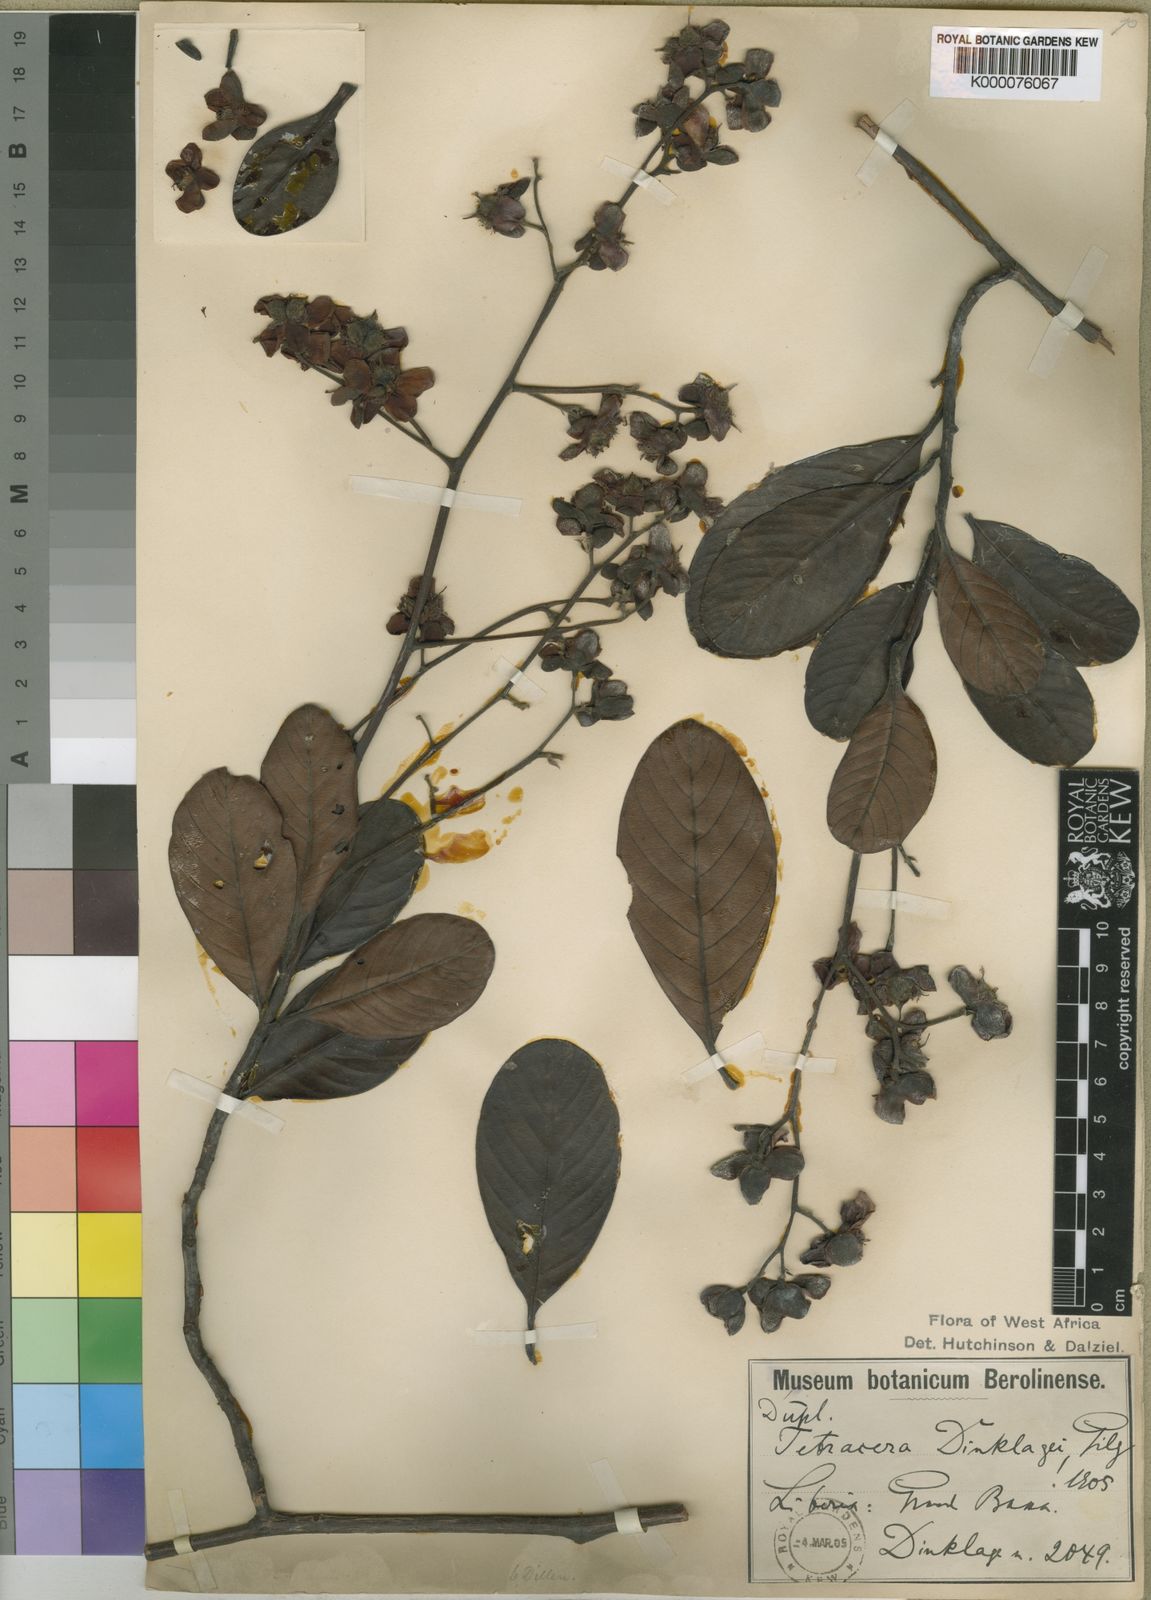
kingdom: Plantae
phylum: Tracheophyta
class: Magnoliopsida
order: Dilleniales
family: Dilleniaceae
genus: Tetracera
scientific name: Tetracera alnifolia
